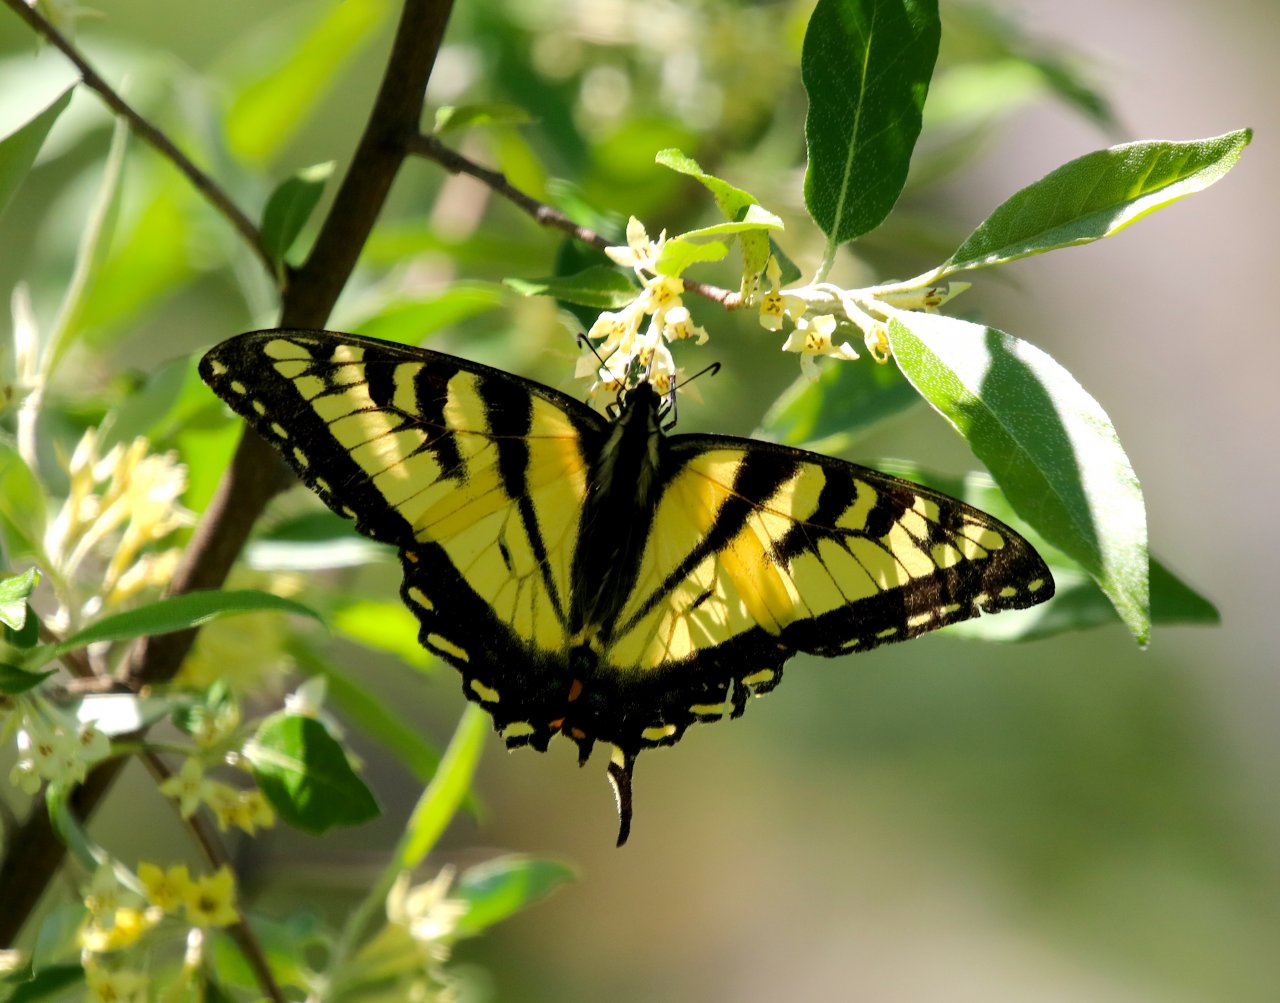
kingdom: Animalia
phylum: Arthropoda
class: Insecta
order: Lepidoptera
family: Papilionidae
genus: Pterourus
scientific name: Pterourus canadensis
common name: Canadian Tiger Swallowtail
